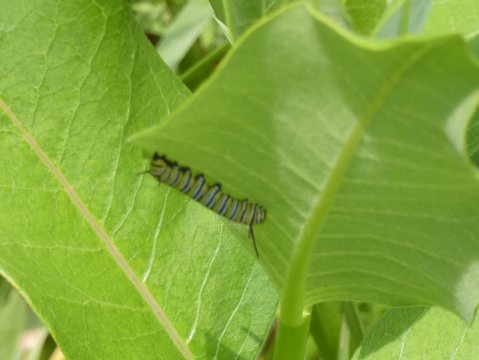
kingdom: Animalia
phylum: Arthropoda
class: Insecta
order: Lepidoptera
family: Nymphalidae
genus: Danaus
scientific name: Danaus plexippus
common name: Monarch
